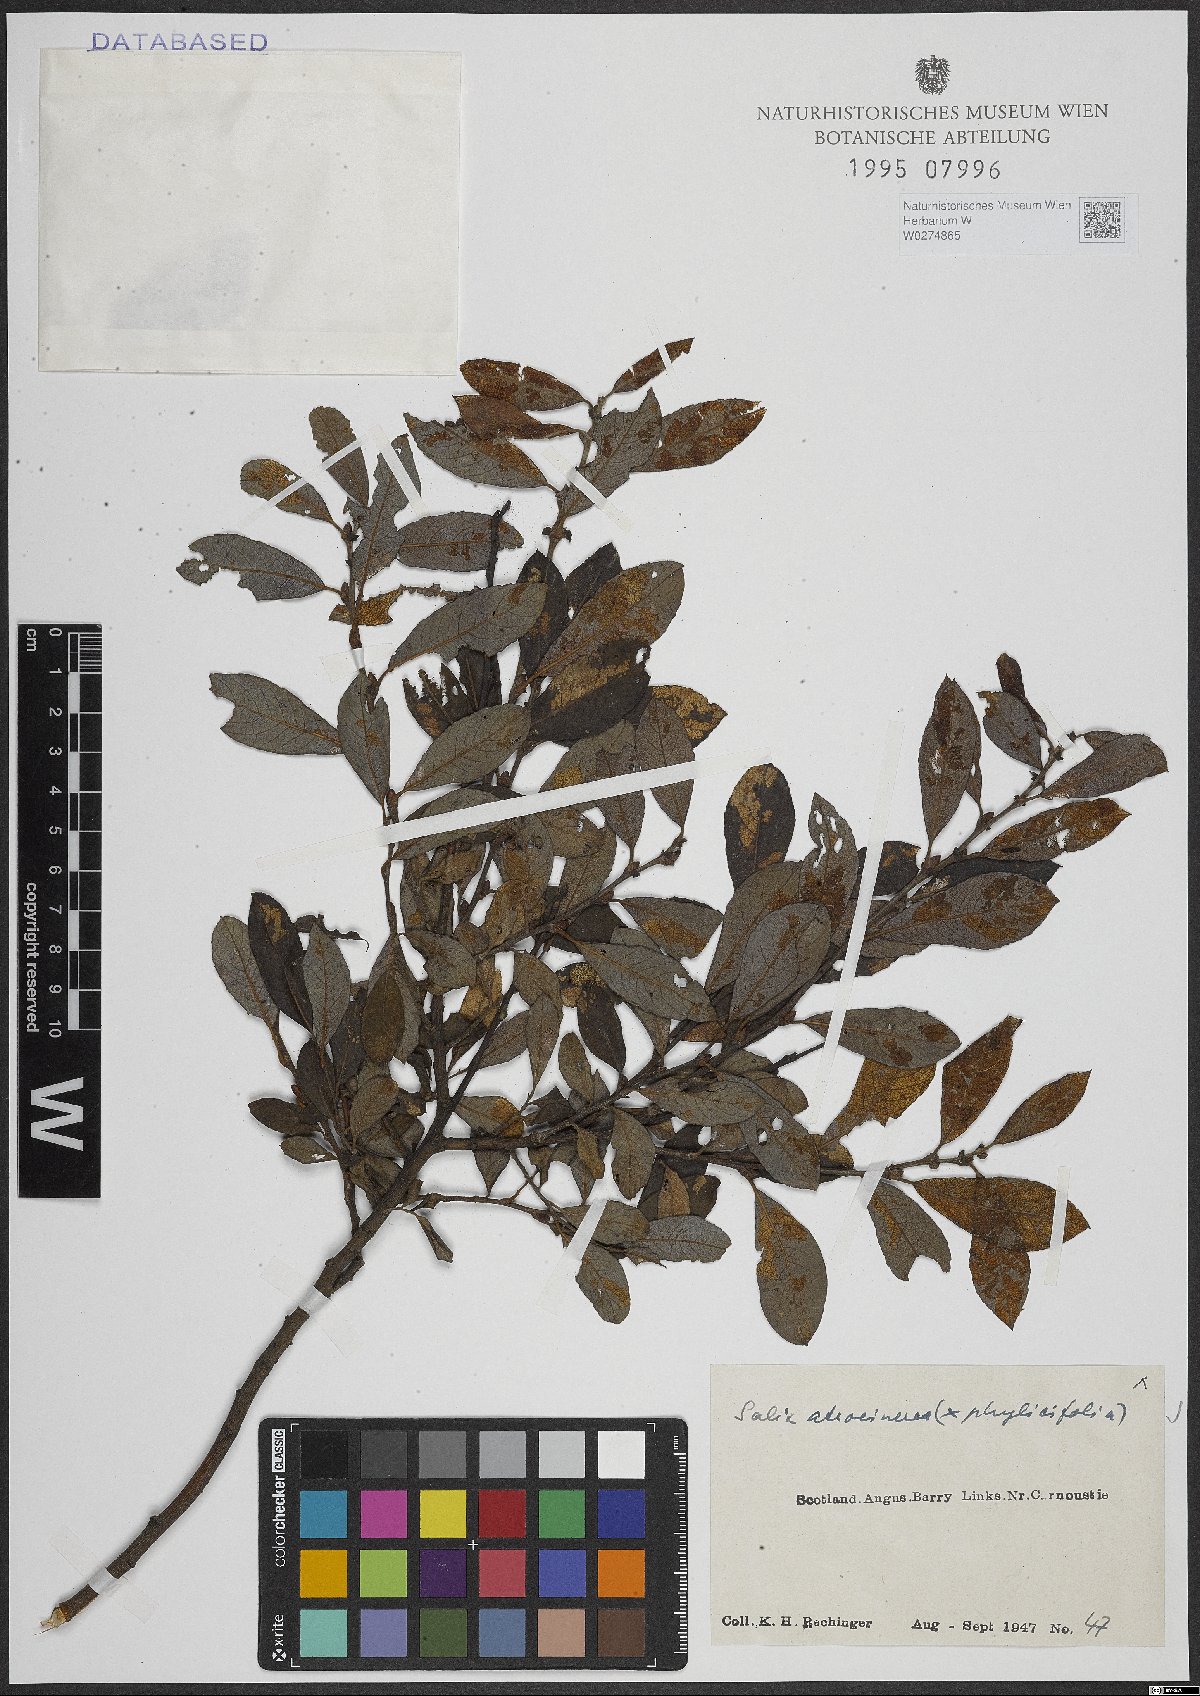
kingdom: Plantae
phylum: Tracheophyta
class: Magnoliopsida
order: Malpighiales
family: Salicaceae
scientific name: Salicaceae
